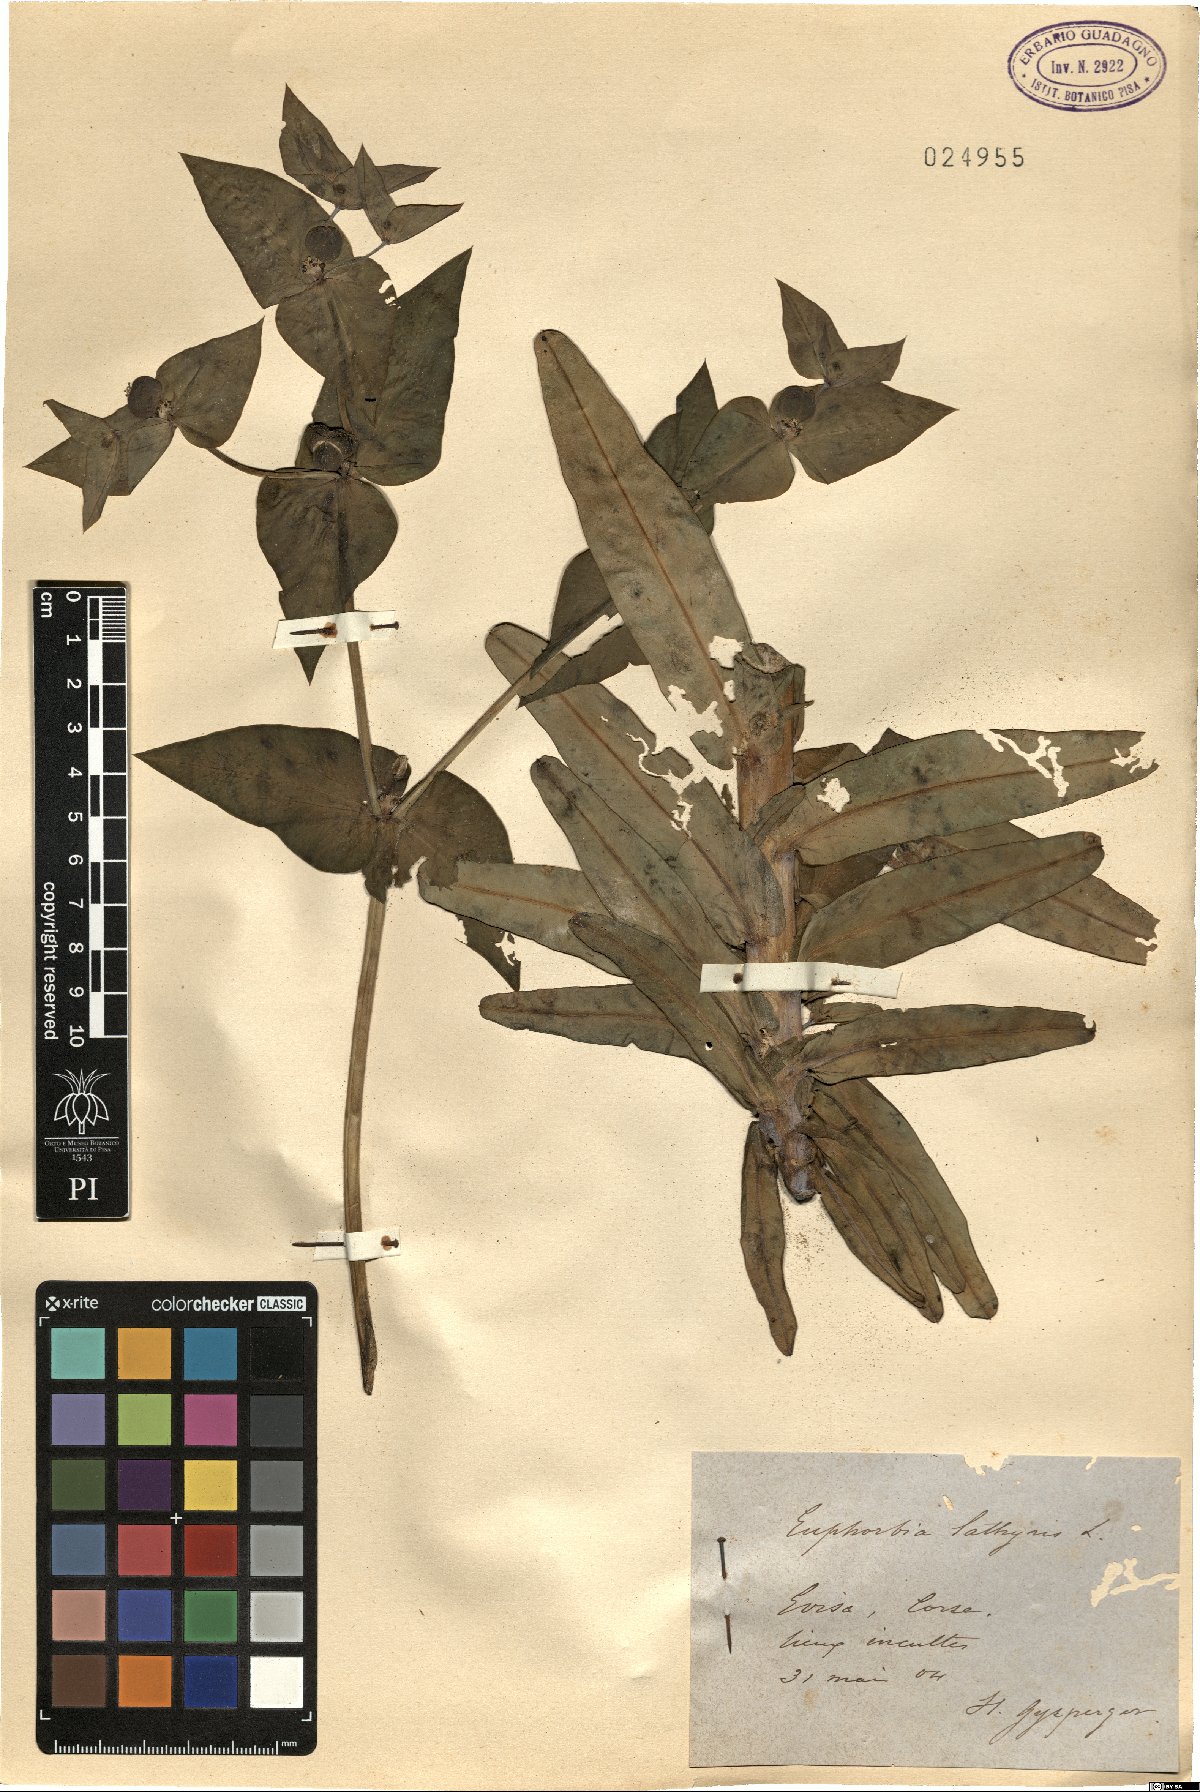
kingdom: Plantae
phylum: Tracheophyta
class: Magnoliopsida
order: Malpighiales
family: Euphorbiaceae
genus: Euphorbia
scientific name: Euphorbia lathyris
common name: Caper spurge
